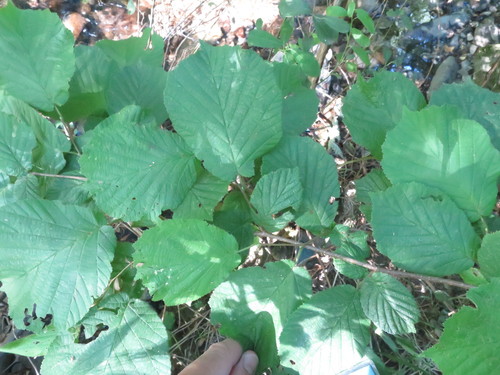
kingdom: Plantae
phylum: Tracheophyta
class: Magnoliopsida
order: Fagales
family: Betulaceae
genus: Corylus
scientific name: Corylus avellana
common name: European hazel
